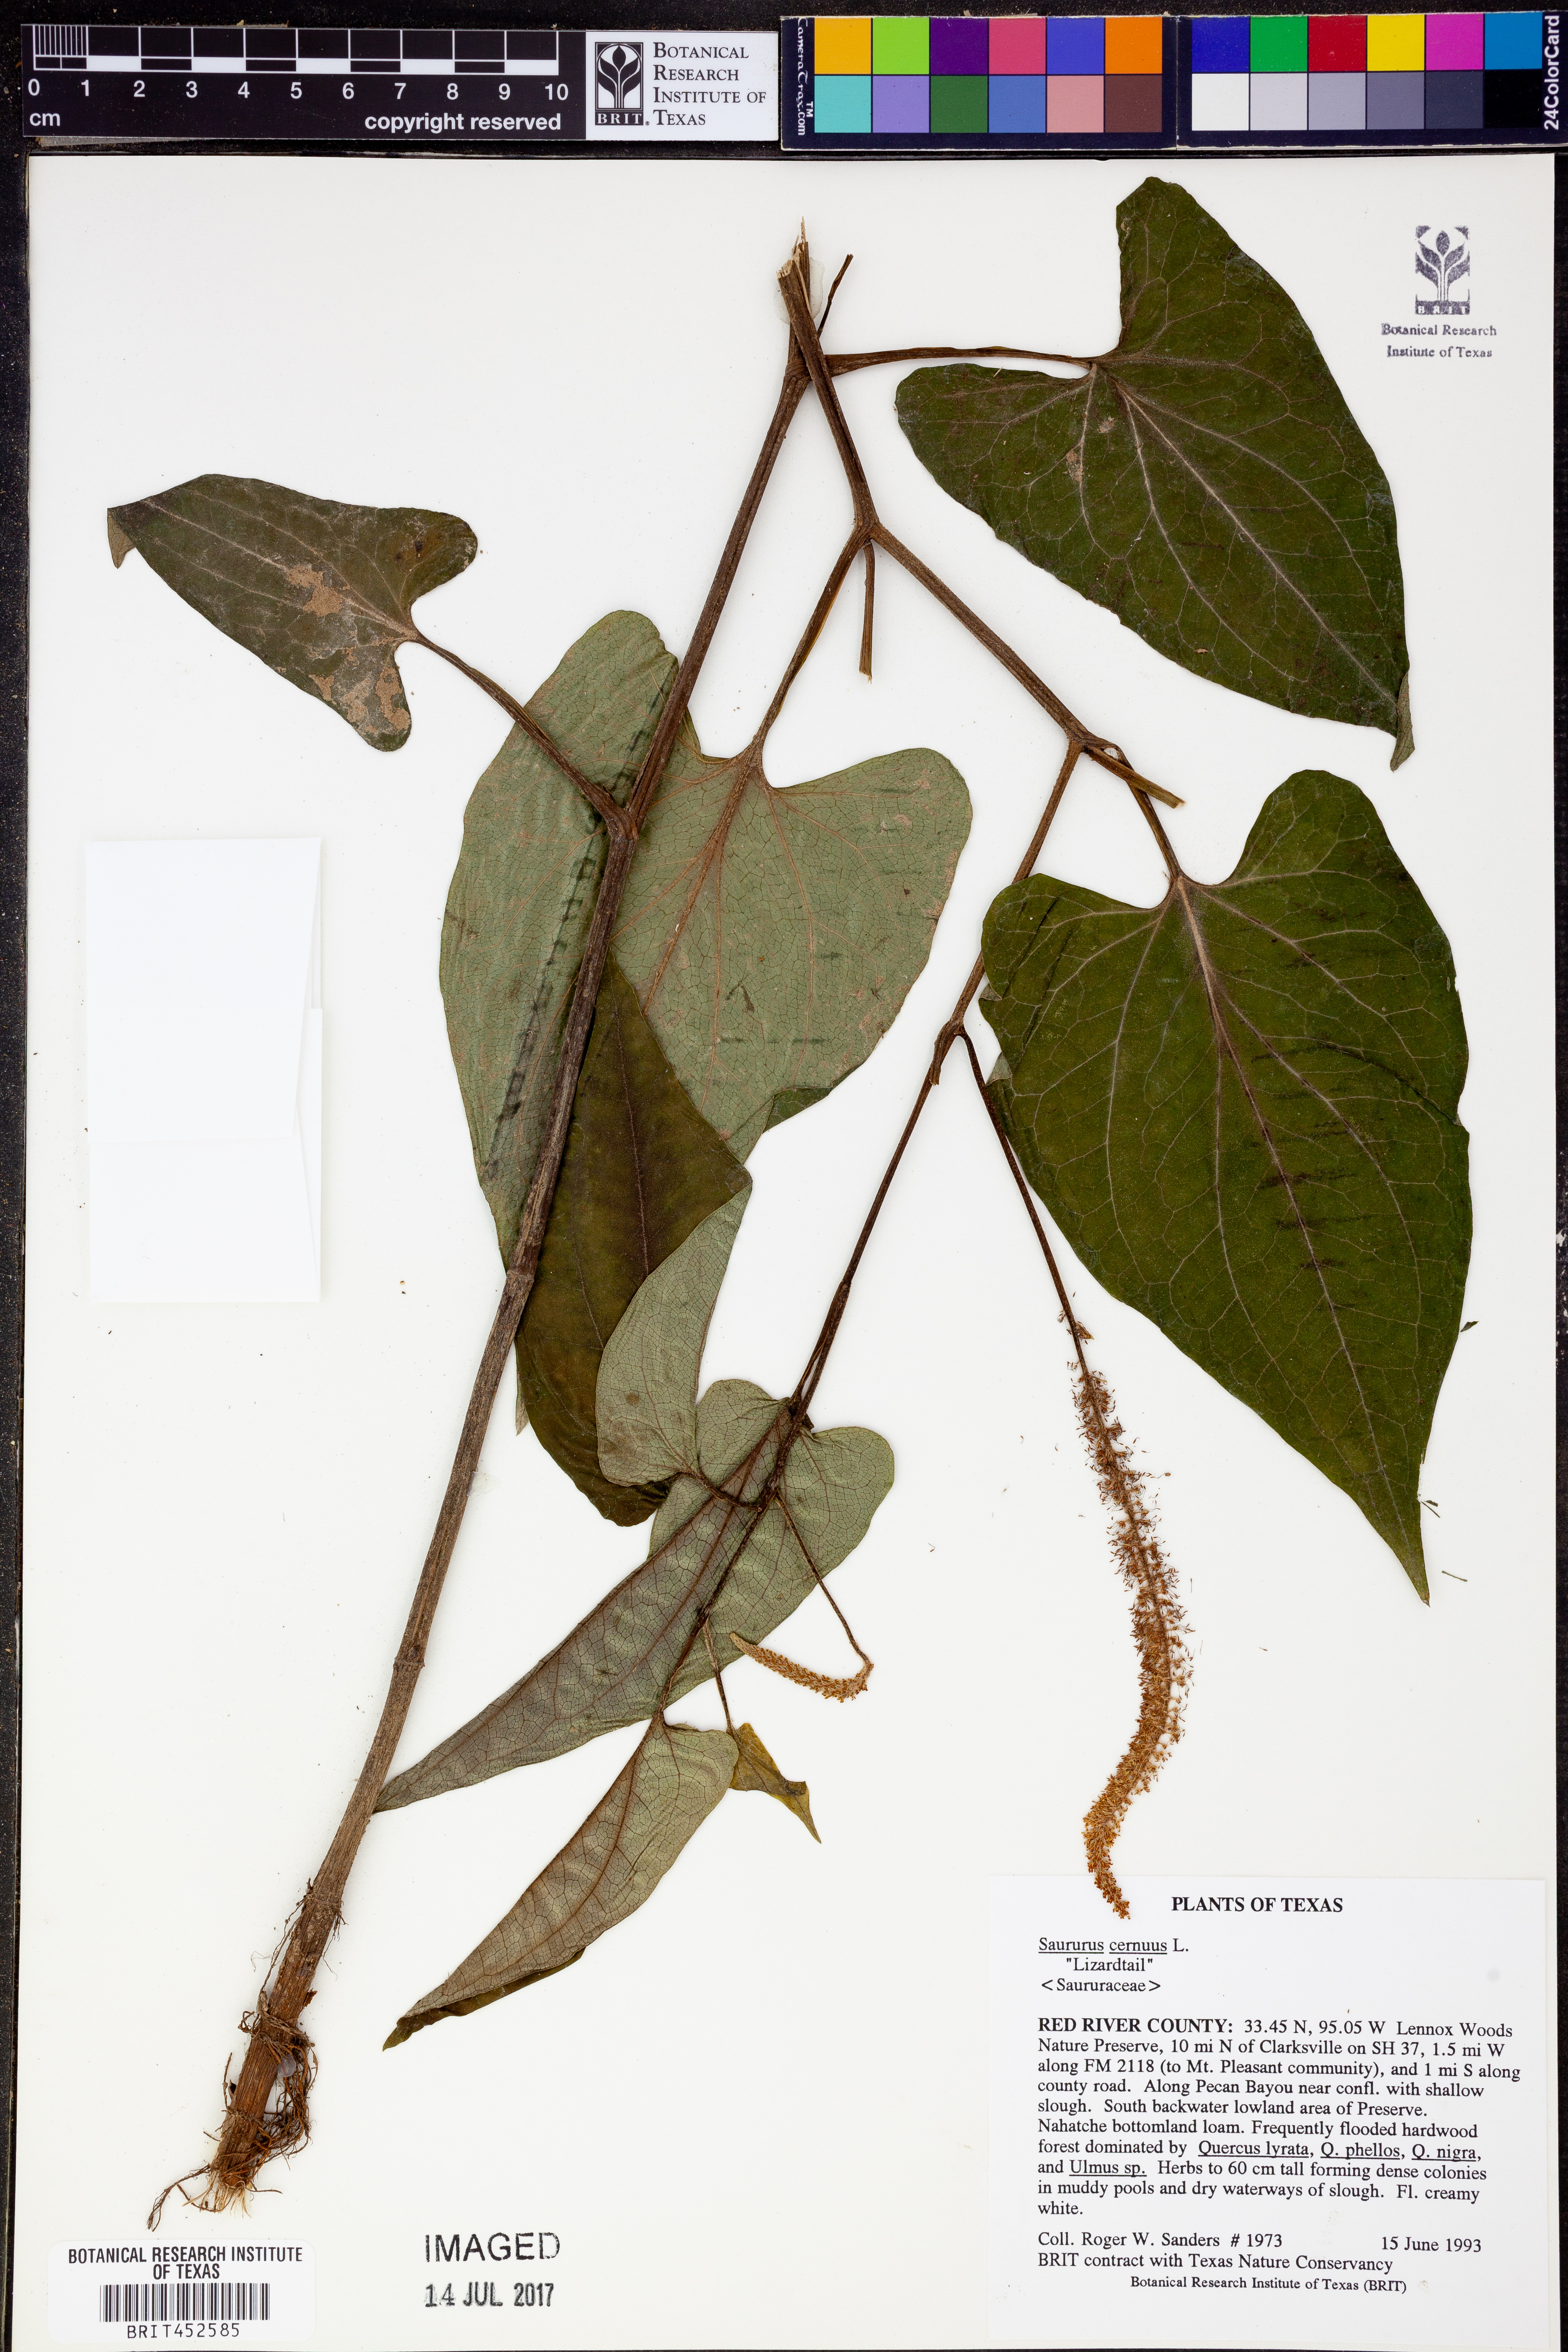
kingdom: Plantae
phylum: Tracheophyta
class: Magnoliopsida
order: Piperales
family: Saururaceae
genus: Saururus
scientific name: Saururus cernuus
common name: Lizard's-tail
